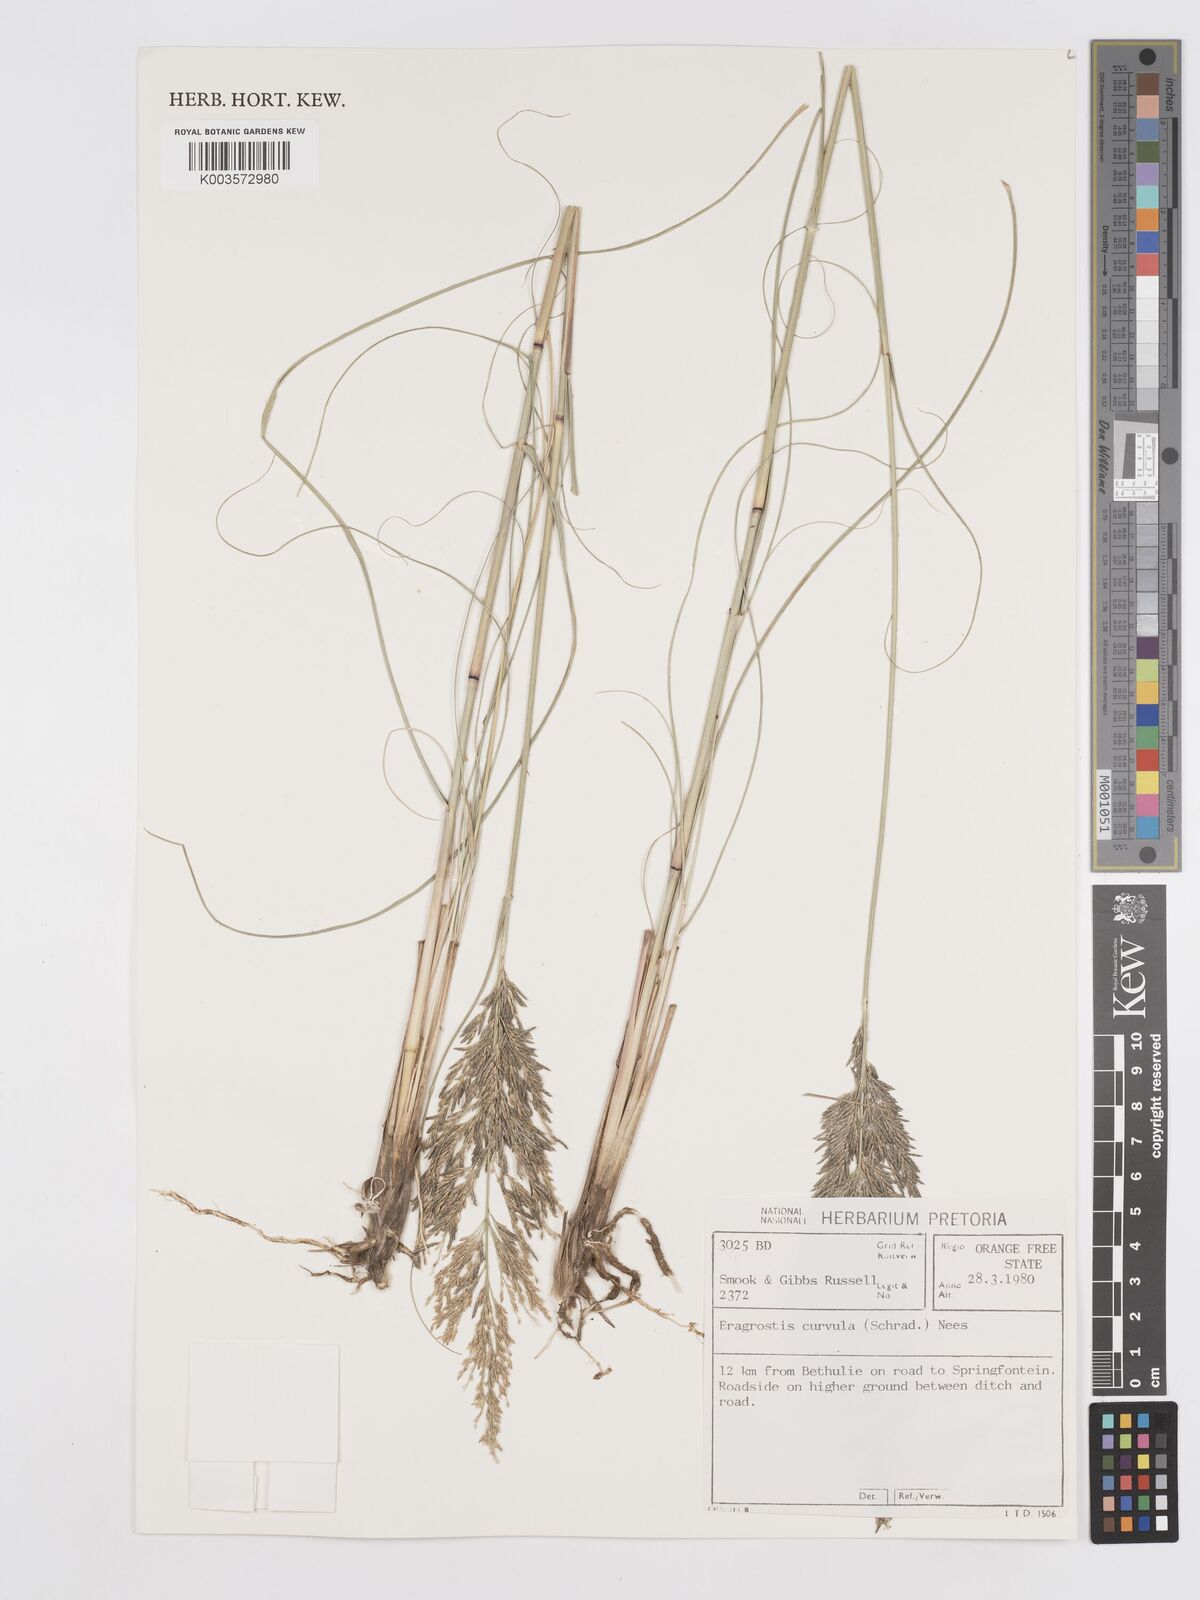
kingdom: Plantae
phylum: Tracheophyta
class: Liliopsida
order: Poales
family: Poaceae
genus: Eragrostis
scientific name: Eragrostis curvula
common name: African love-grass
